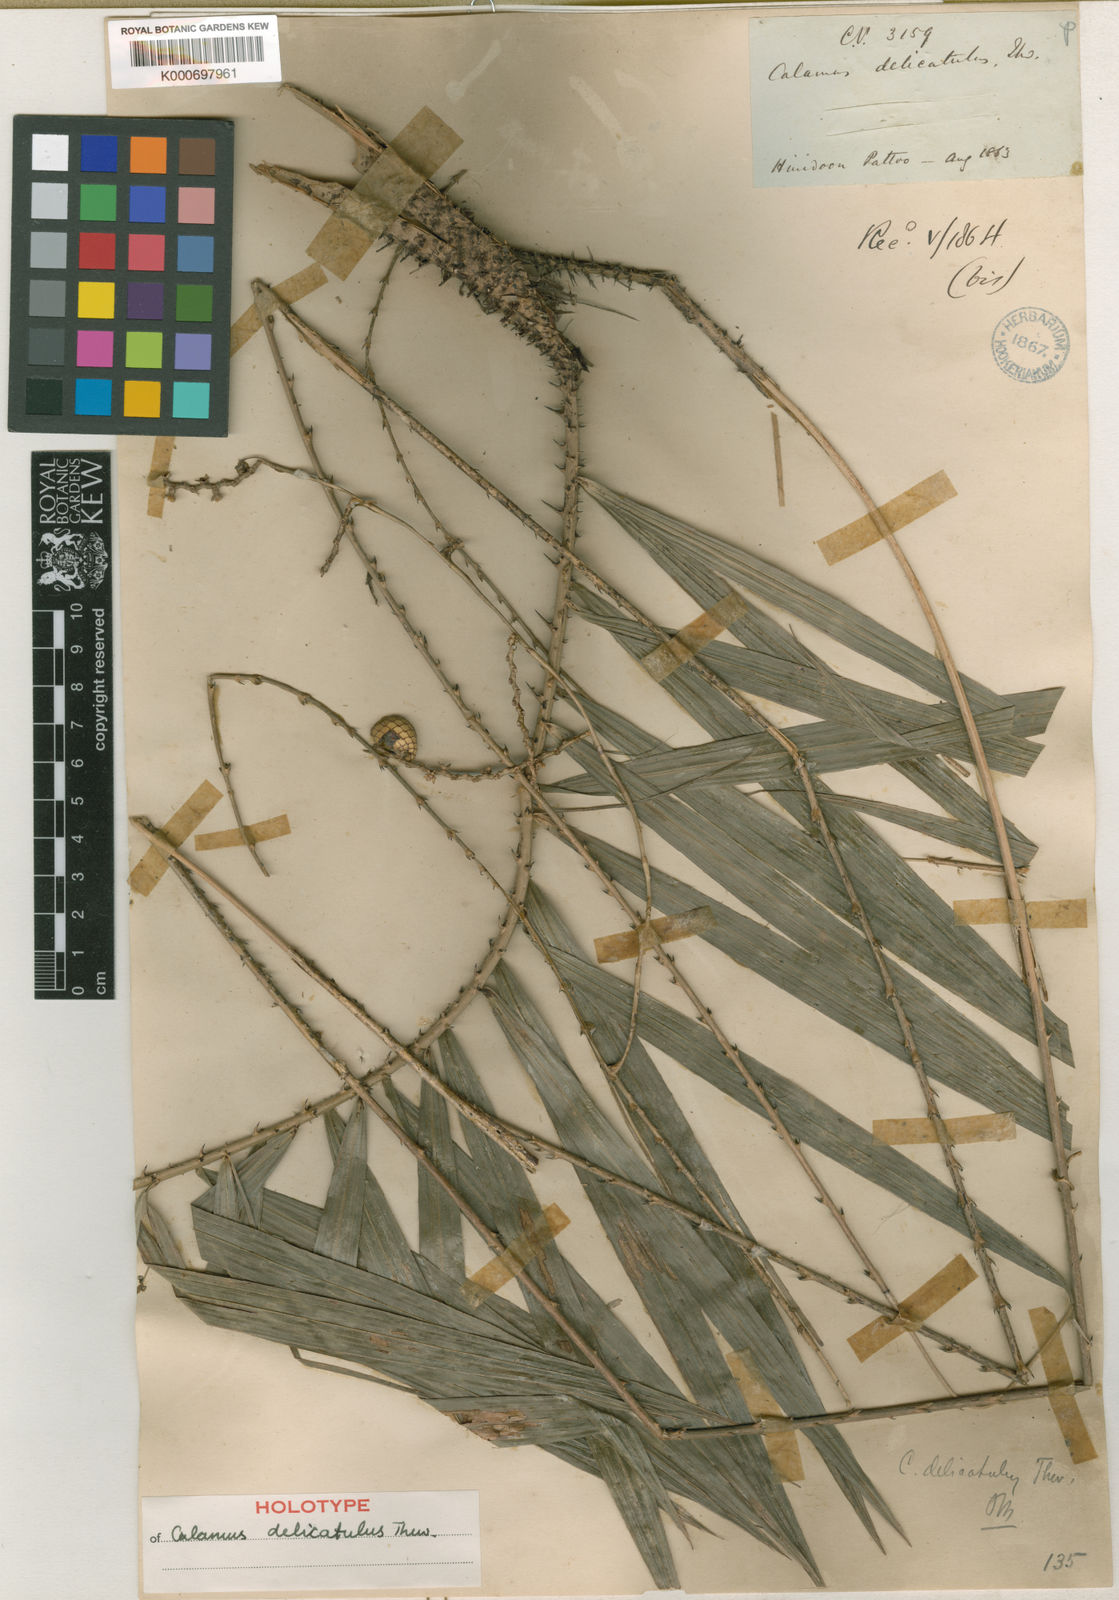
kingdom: Plantae
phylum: Tracheophyta
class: Liliopsida
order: Arecales
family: Arecaceae
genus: Calamus
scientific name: Calamus delicatulus
